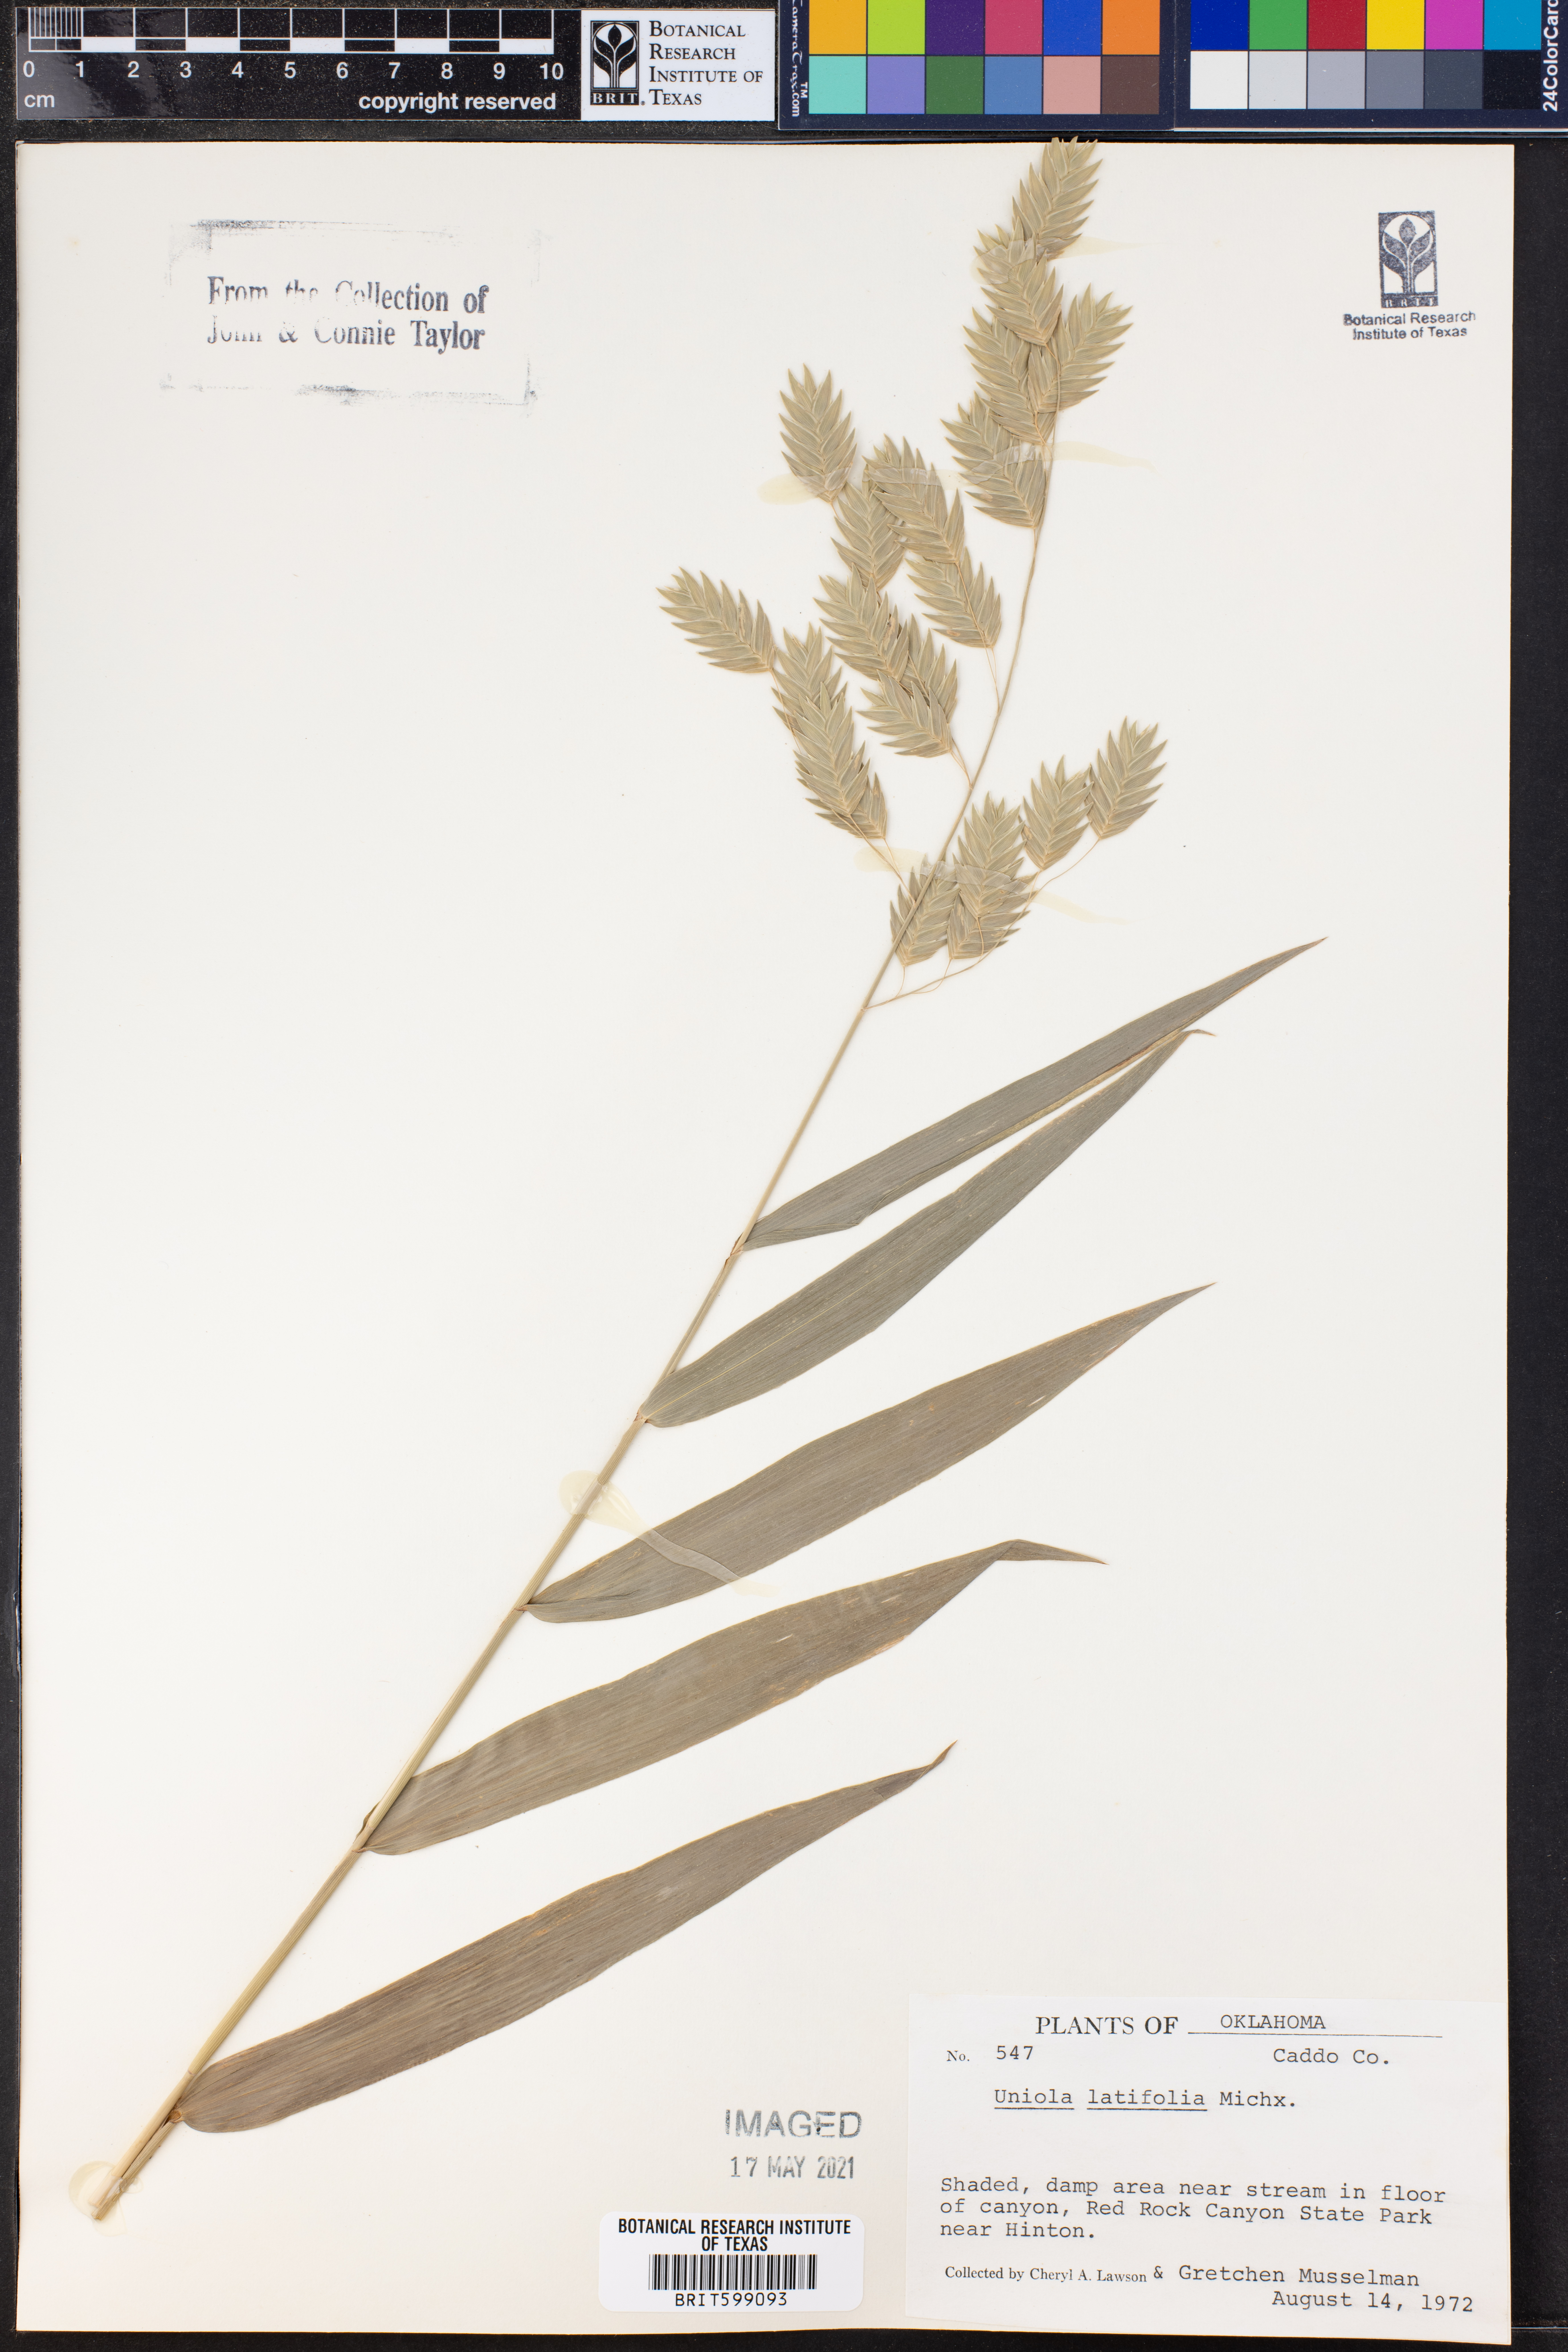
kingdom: Plantae
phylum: Tracheophyta
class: Liliopsida
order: Poales
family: Poaceae
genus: Chasmanthium
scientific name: Chasmanthium latifolium
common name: Broad-leaved chasmanthium
